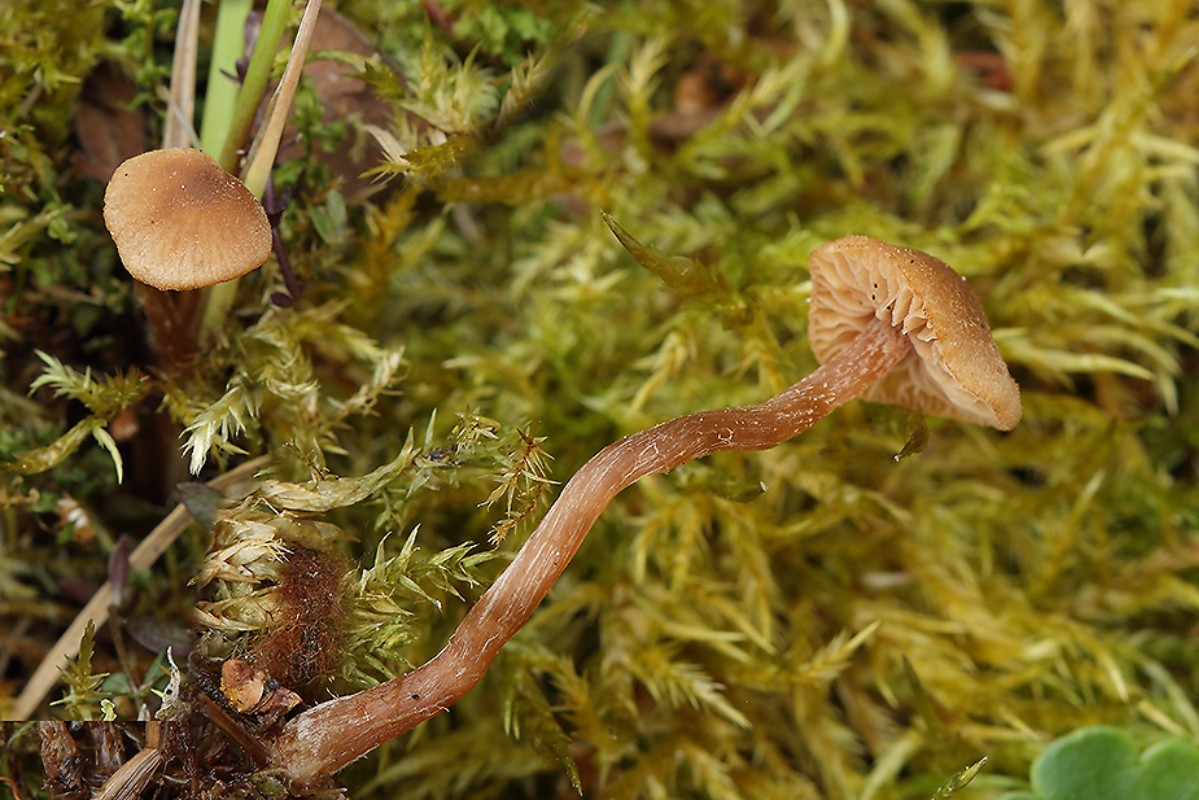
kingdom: Fungi
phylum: Basidiomycota
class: Agaricomycetes
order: Agaricales
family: Hymenogastraceae
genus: Naucoria
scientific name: Naucoria
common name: knaphat
